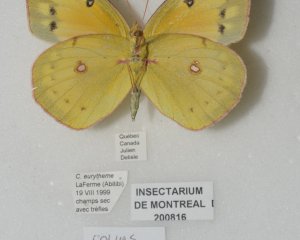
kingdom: Animalia
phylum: Arthropoda
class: Insecta
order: Lepidoptera
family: Pieridae
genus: Colias
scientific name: Colias eurytheme
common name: Orange Sulphur
